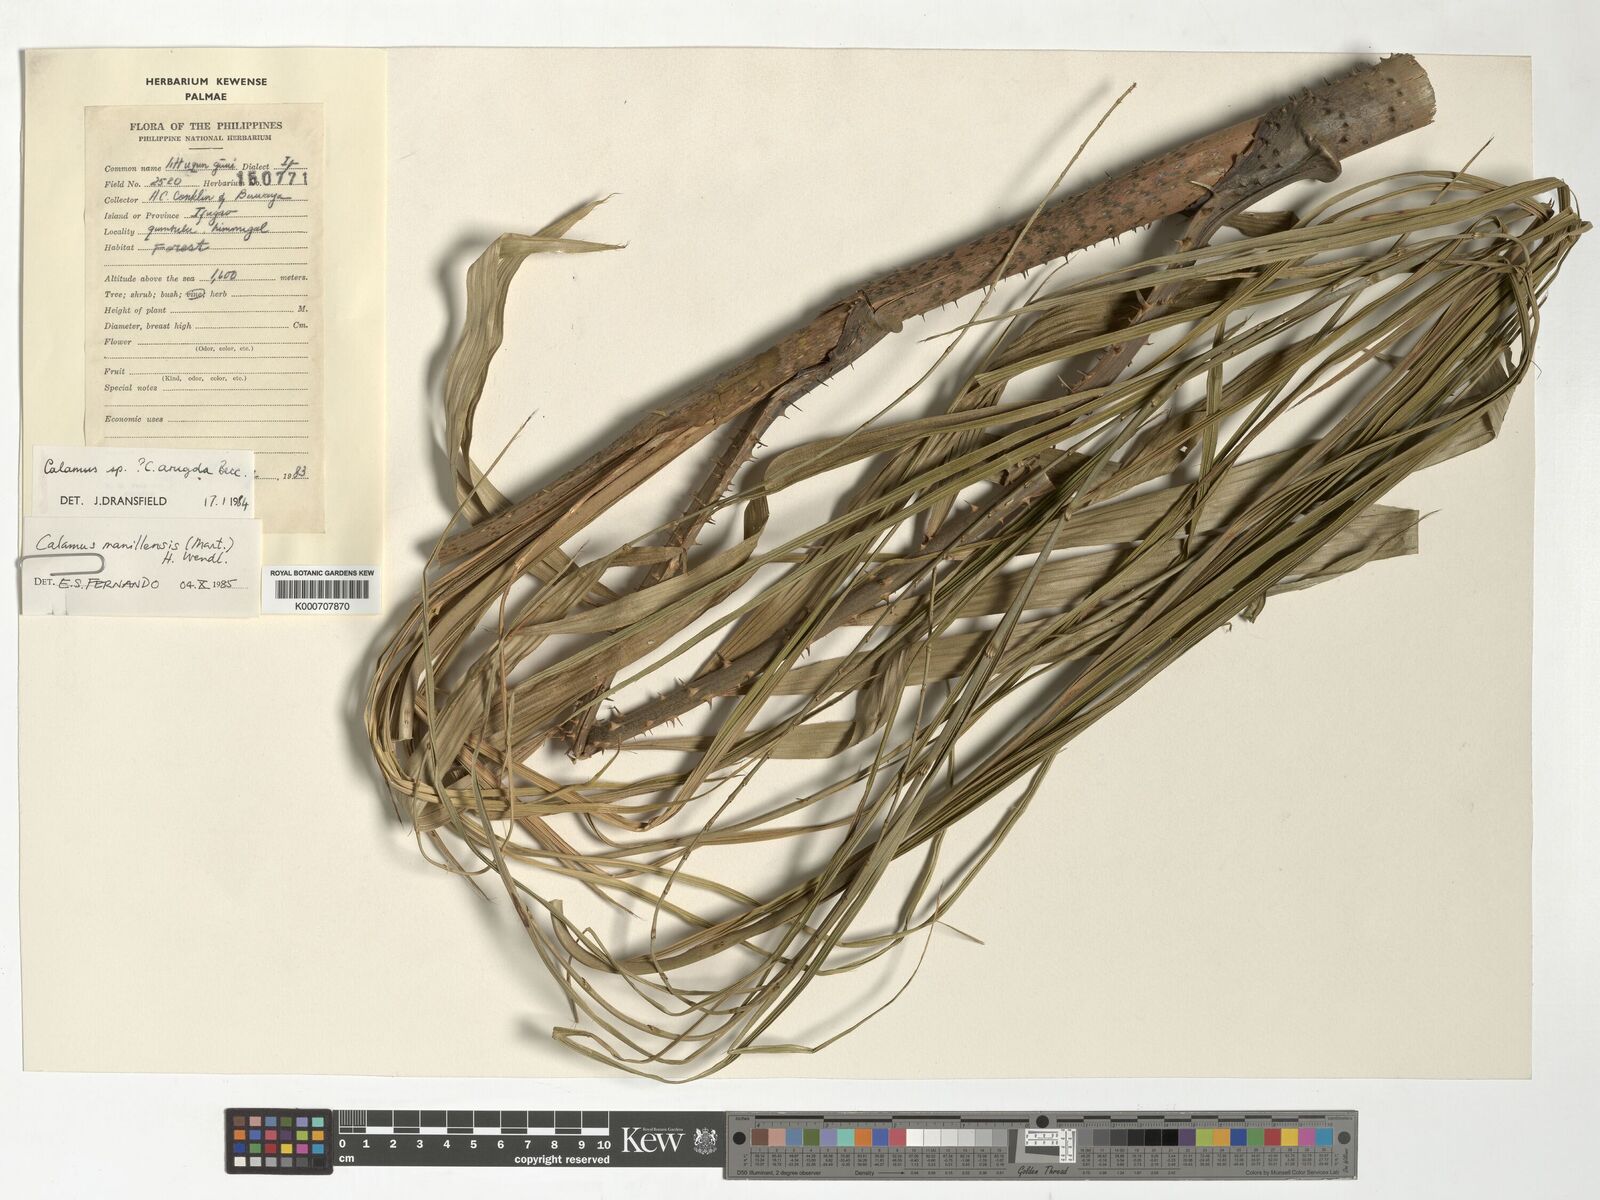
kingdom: Plantae
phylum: Tracheophyta
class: Liliopsida
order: Arecales
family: Arecaceae
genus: Calamus
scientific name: Calamus manillensis
